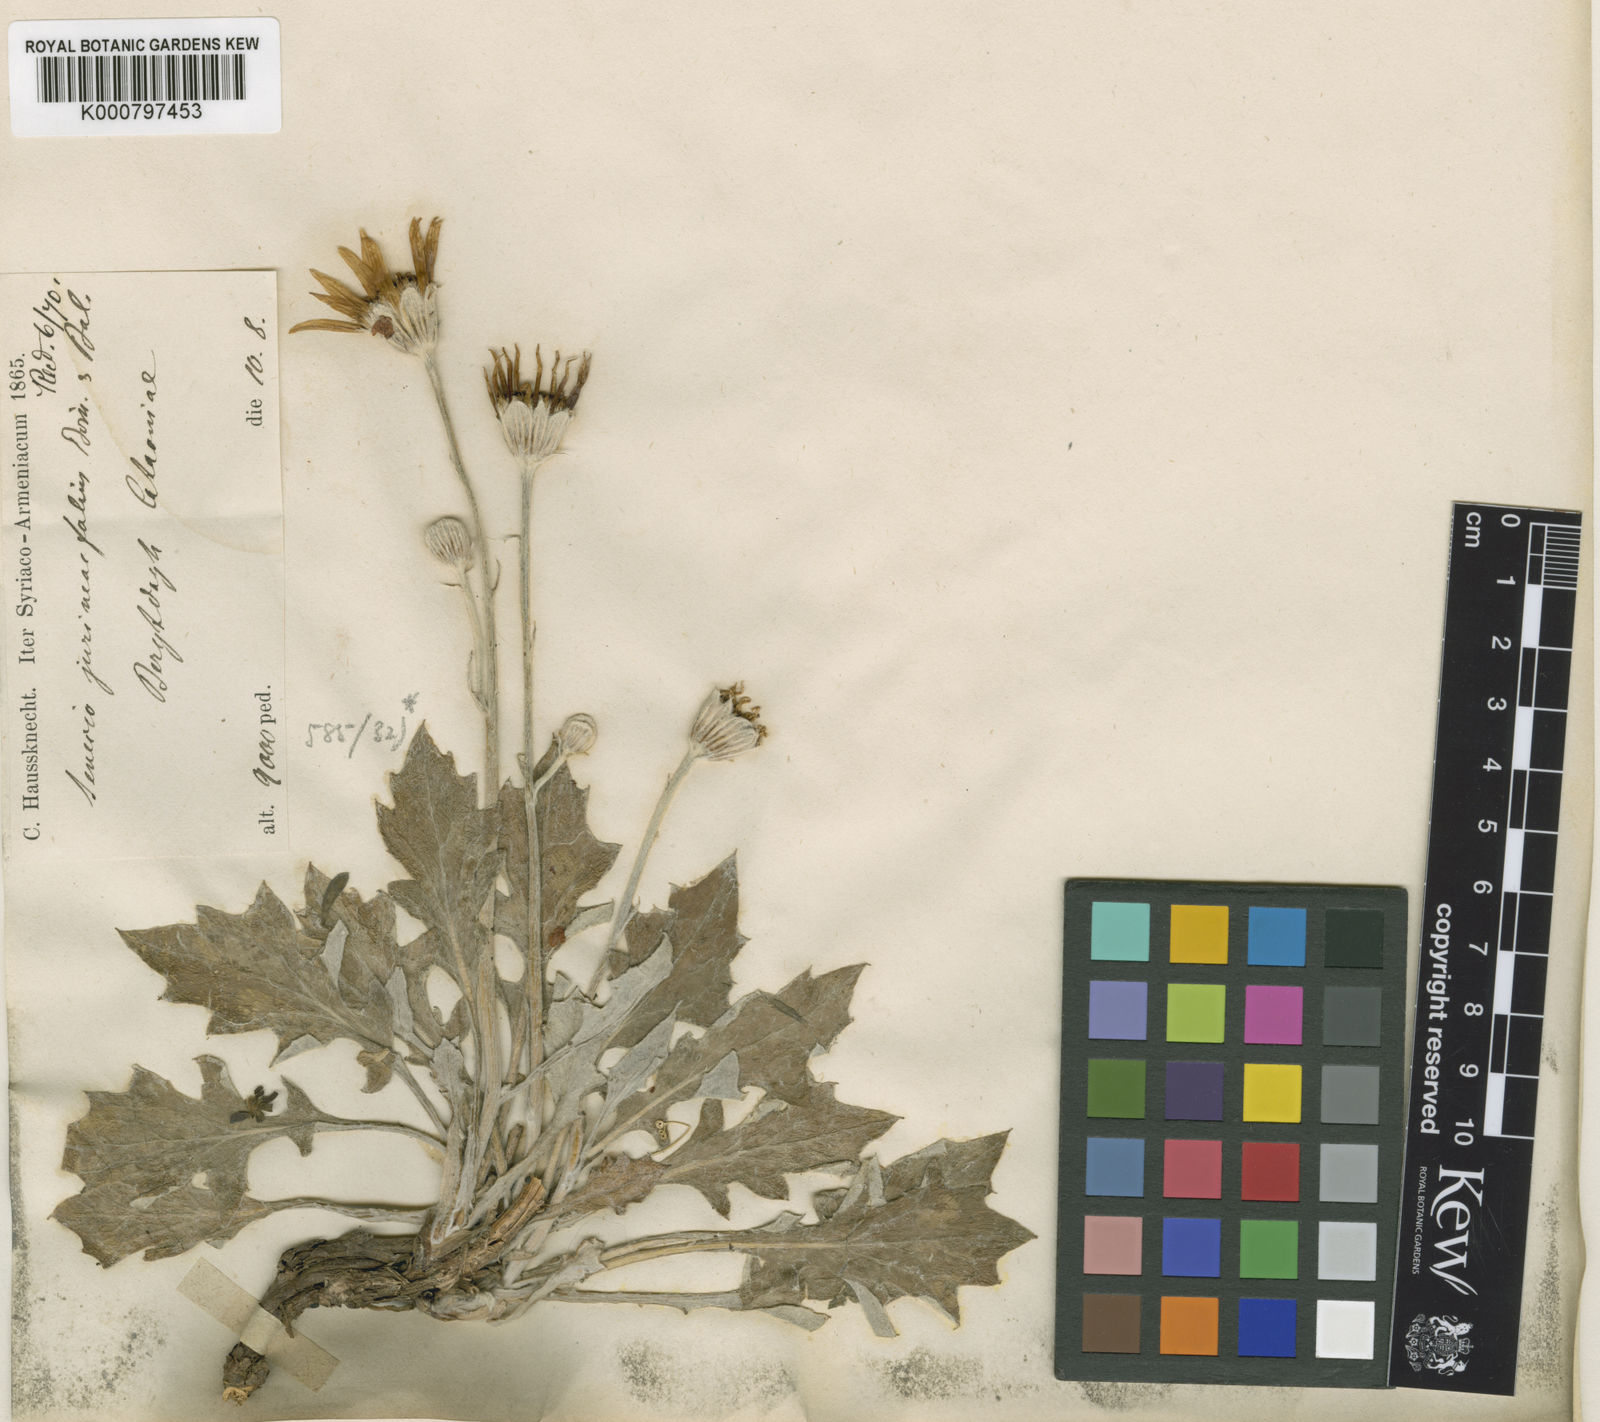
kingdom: Plantae
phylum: Tracheophyta
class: Magnoliopsida
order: Asterales
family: Asteraceae
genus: Turanecio
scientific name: Turanecio jurineifolius
